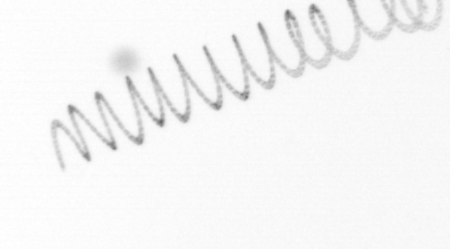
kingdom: Chromista
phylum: Ochrophyta
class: Bacillariophyceae
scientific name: Bacillariophyceae
